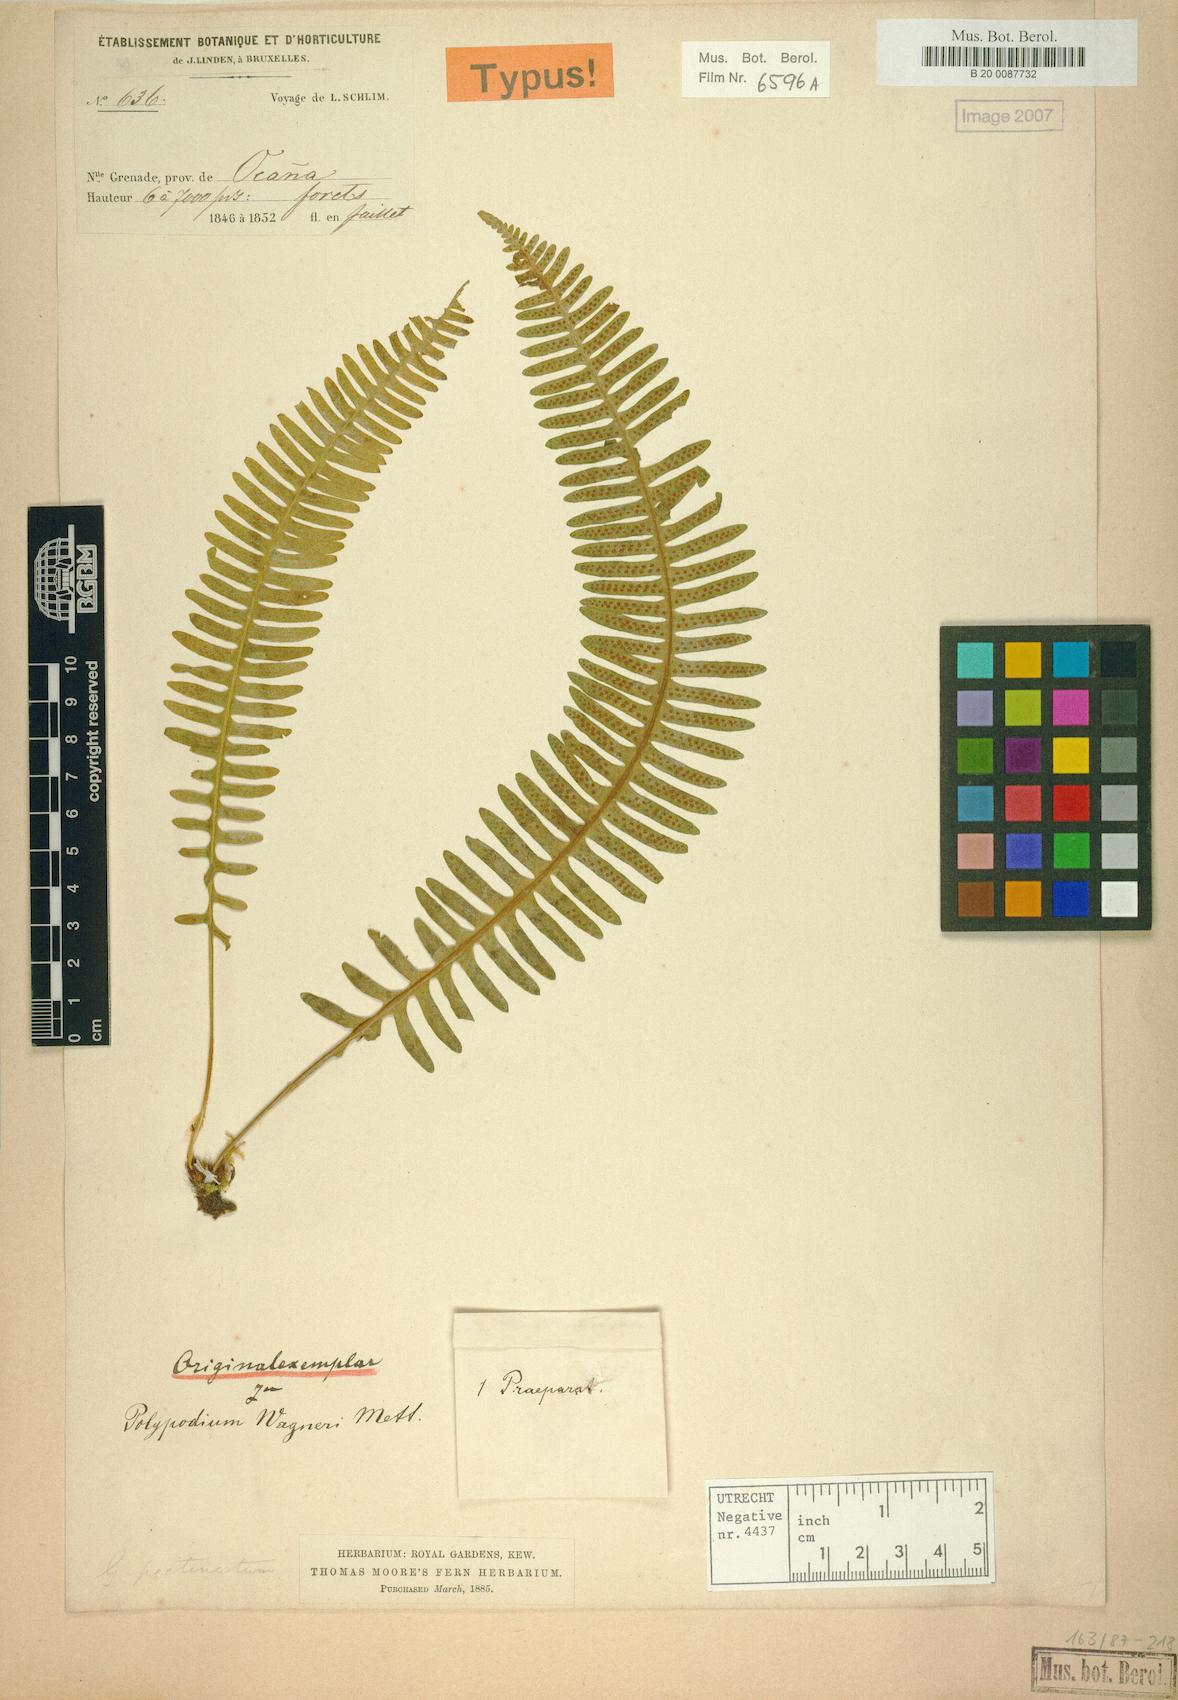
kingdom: Plantae
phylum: Tracheophyta
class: Polypodiopsida
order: Polypodiales
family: Polypodiaceae
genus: Serpocaulon
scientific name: Serpocaulon wagneri
